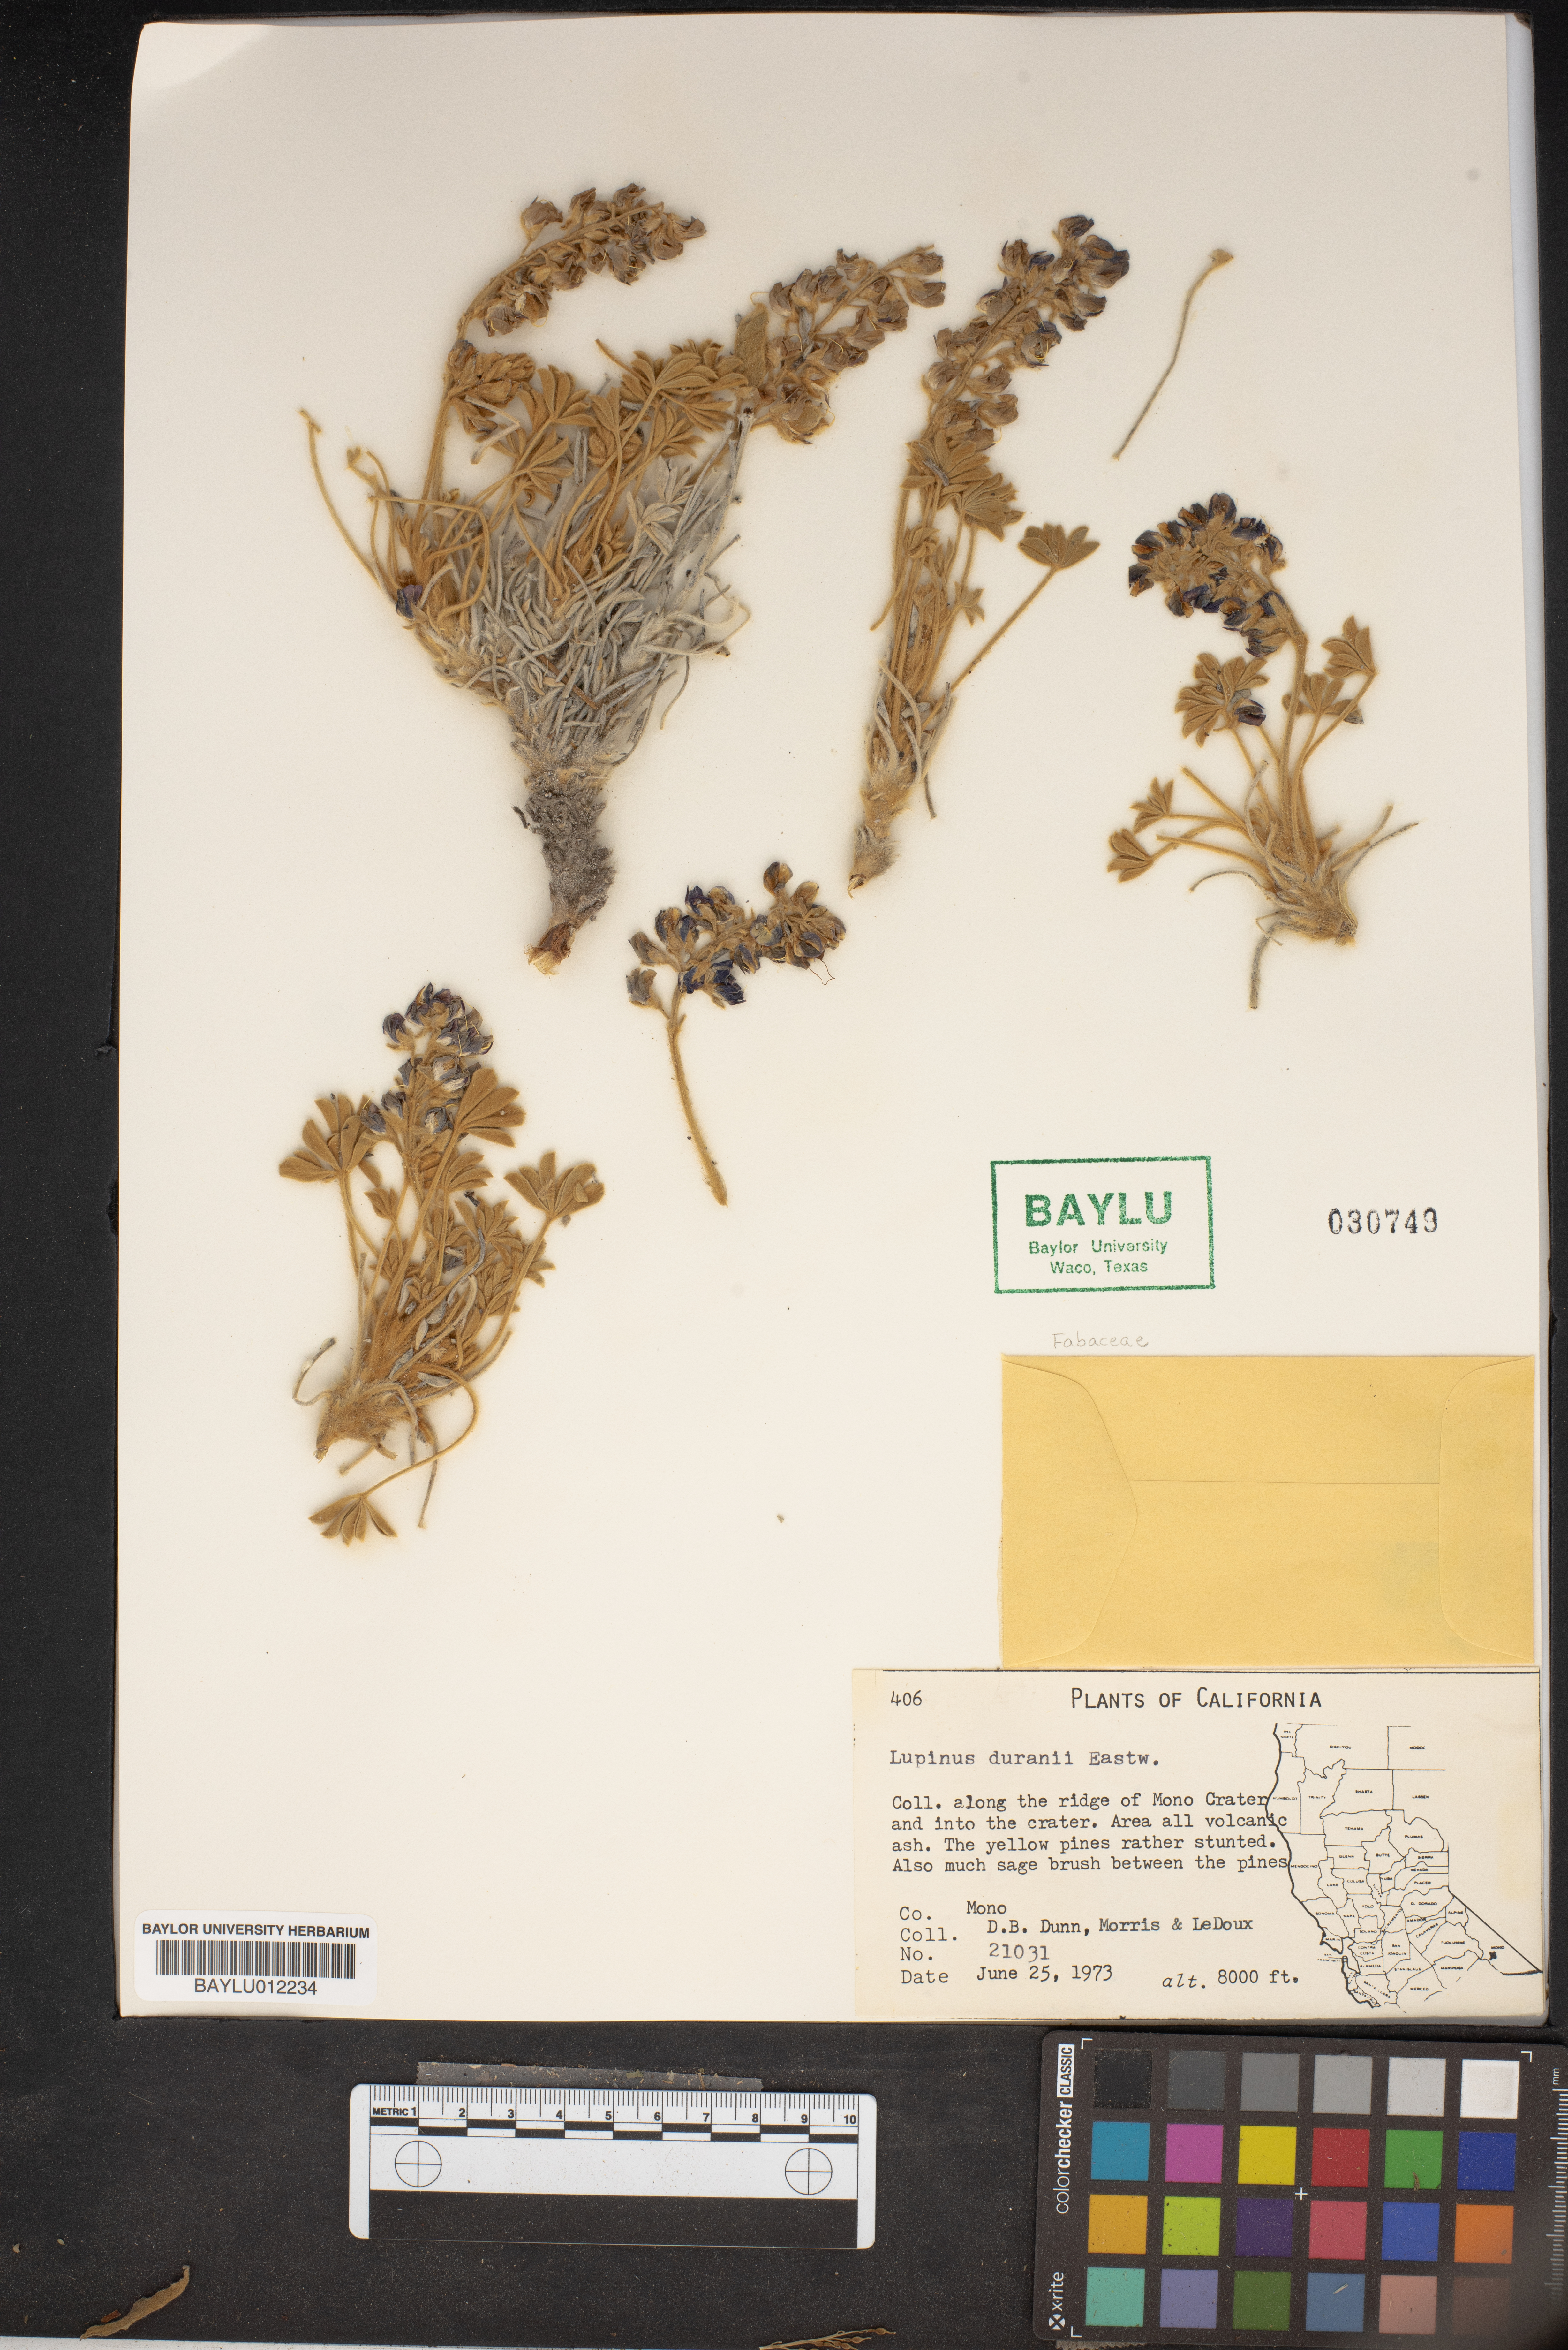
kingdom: Plantae
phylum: Tracheophyta
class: Magnoliopsida
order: Fabales
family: Fabaceae
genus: Lupinus
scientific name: Lupinus duranii
